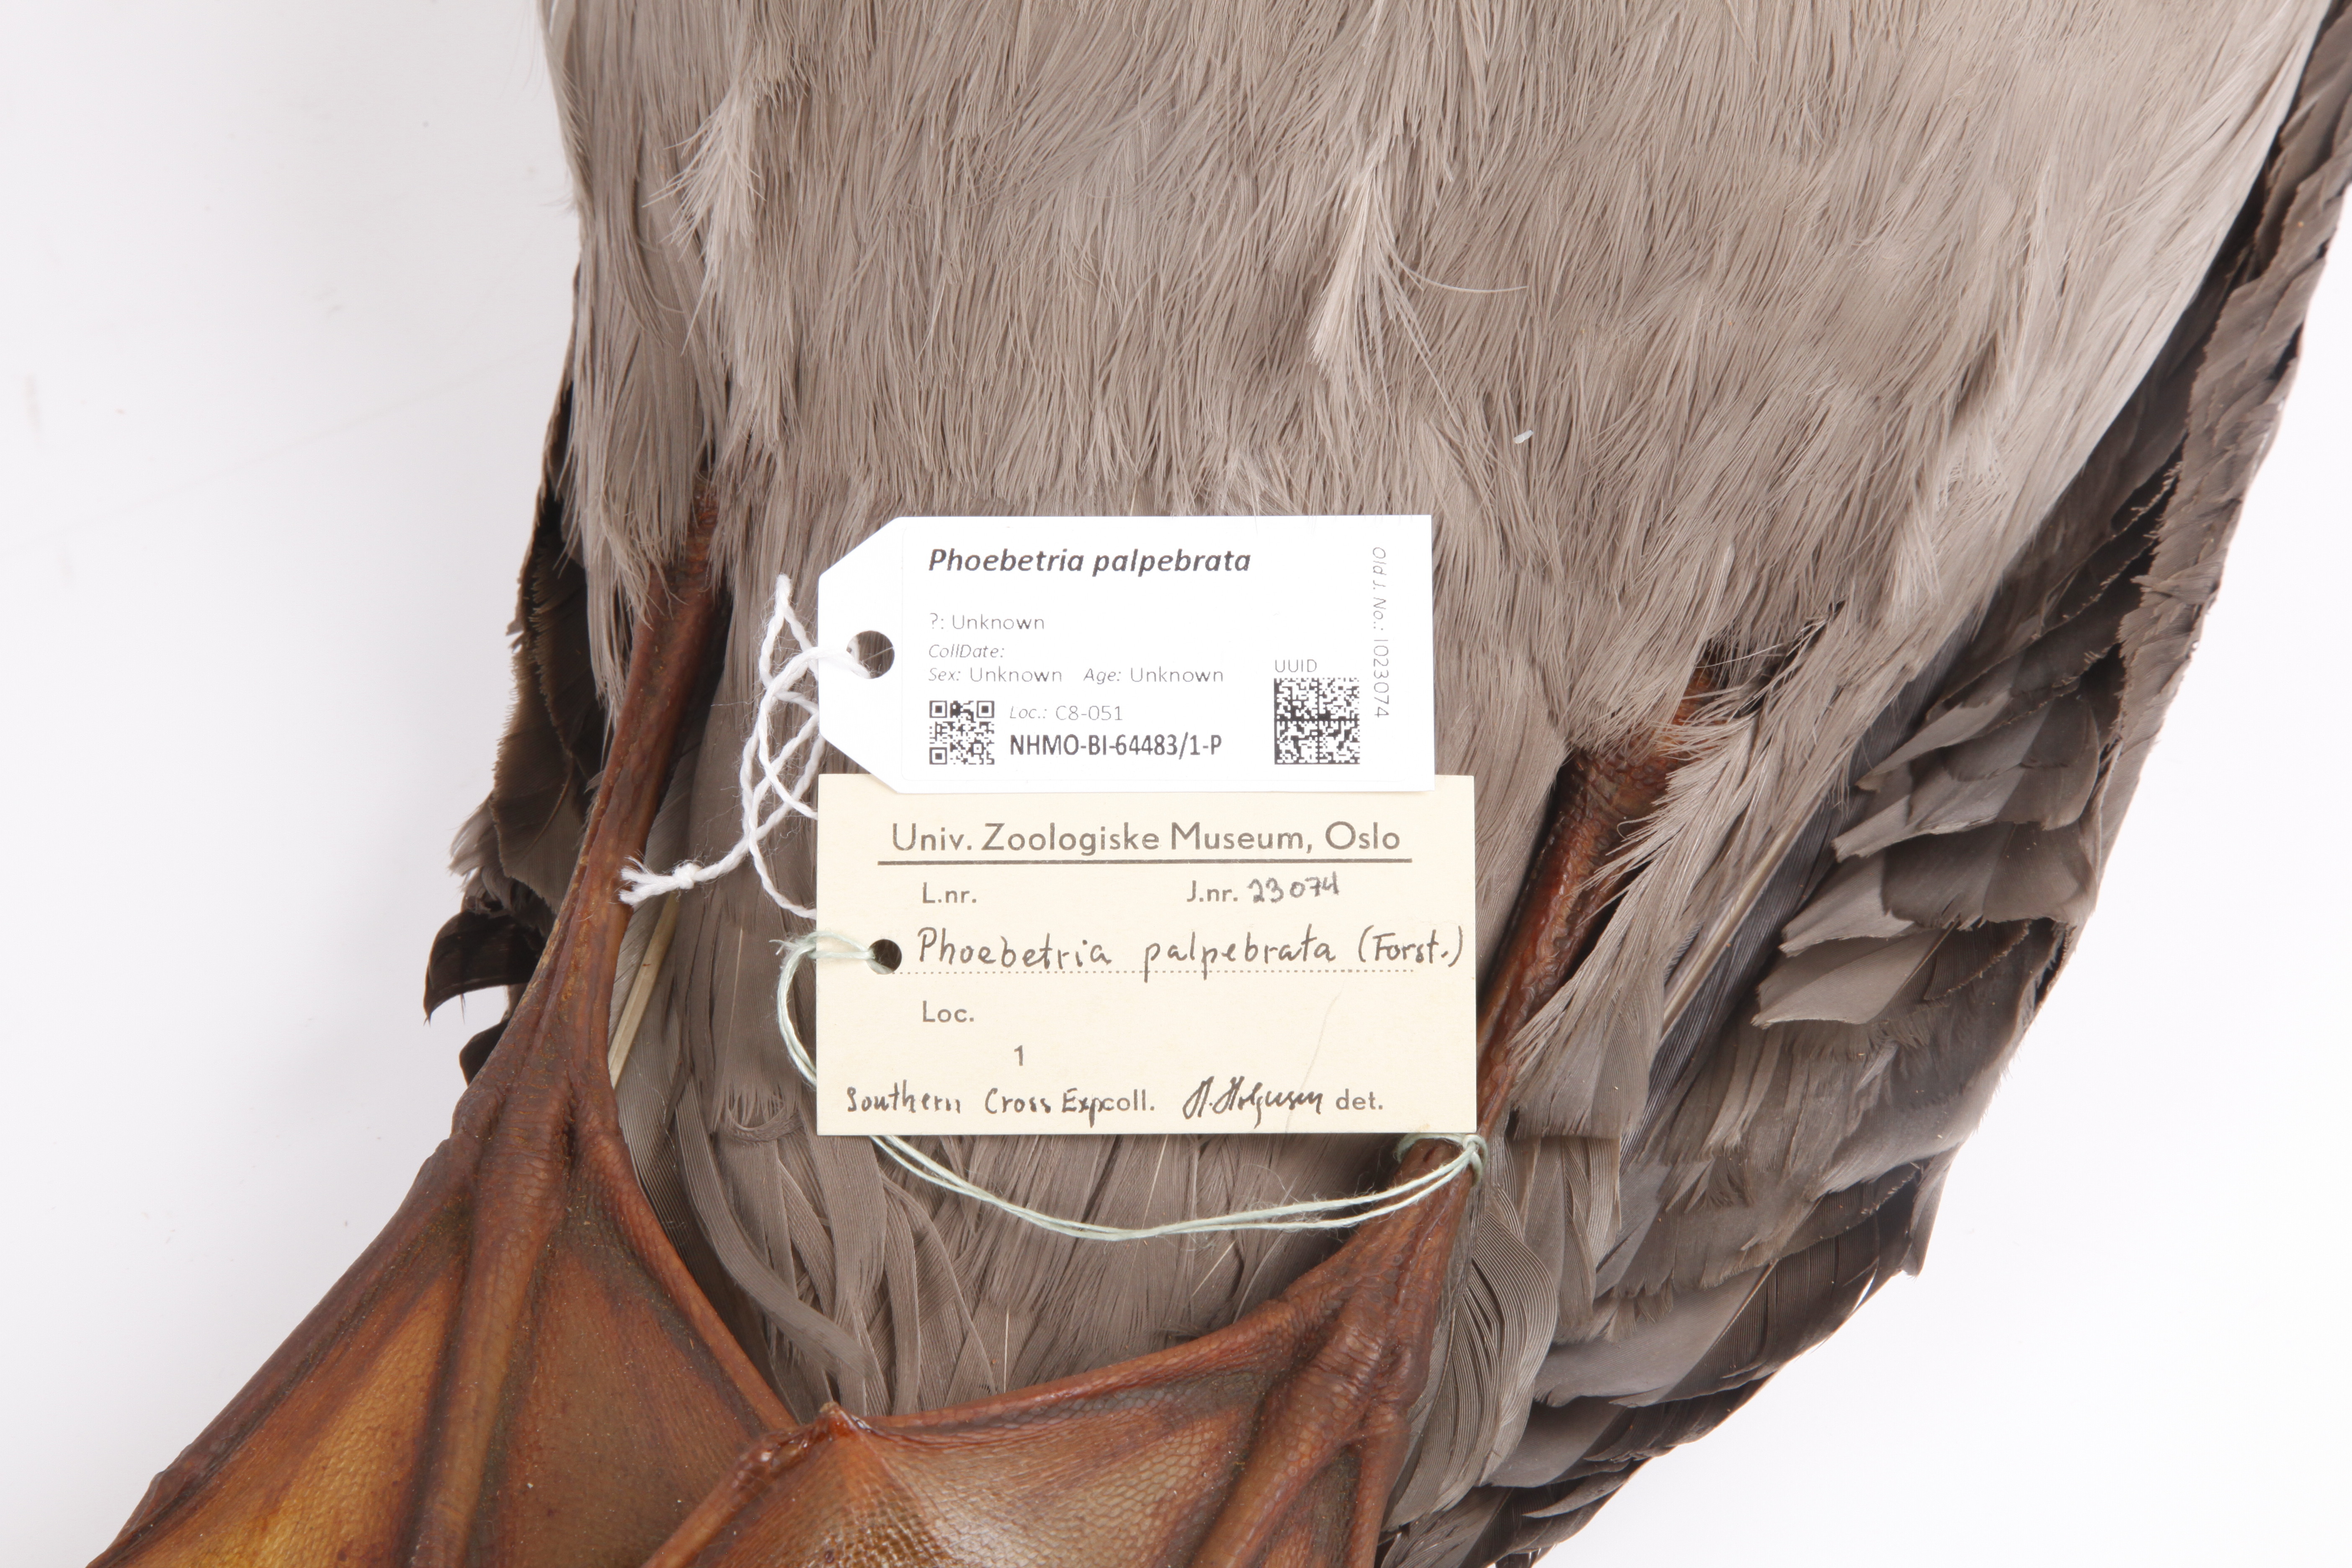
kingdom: Animalia
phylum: Chordata
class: Aves
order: Procellariiformes
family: Diomedeidae
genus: Phoebetria
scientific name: Phoebetria palpebrata
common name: Light-mantled albatross
